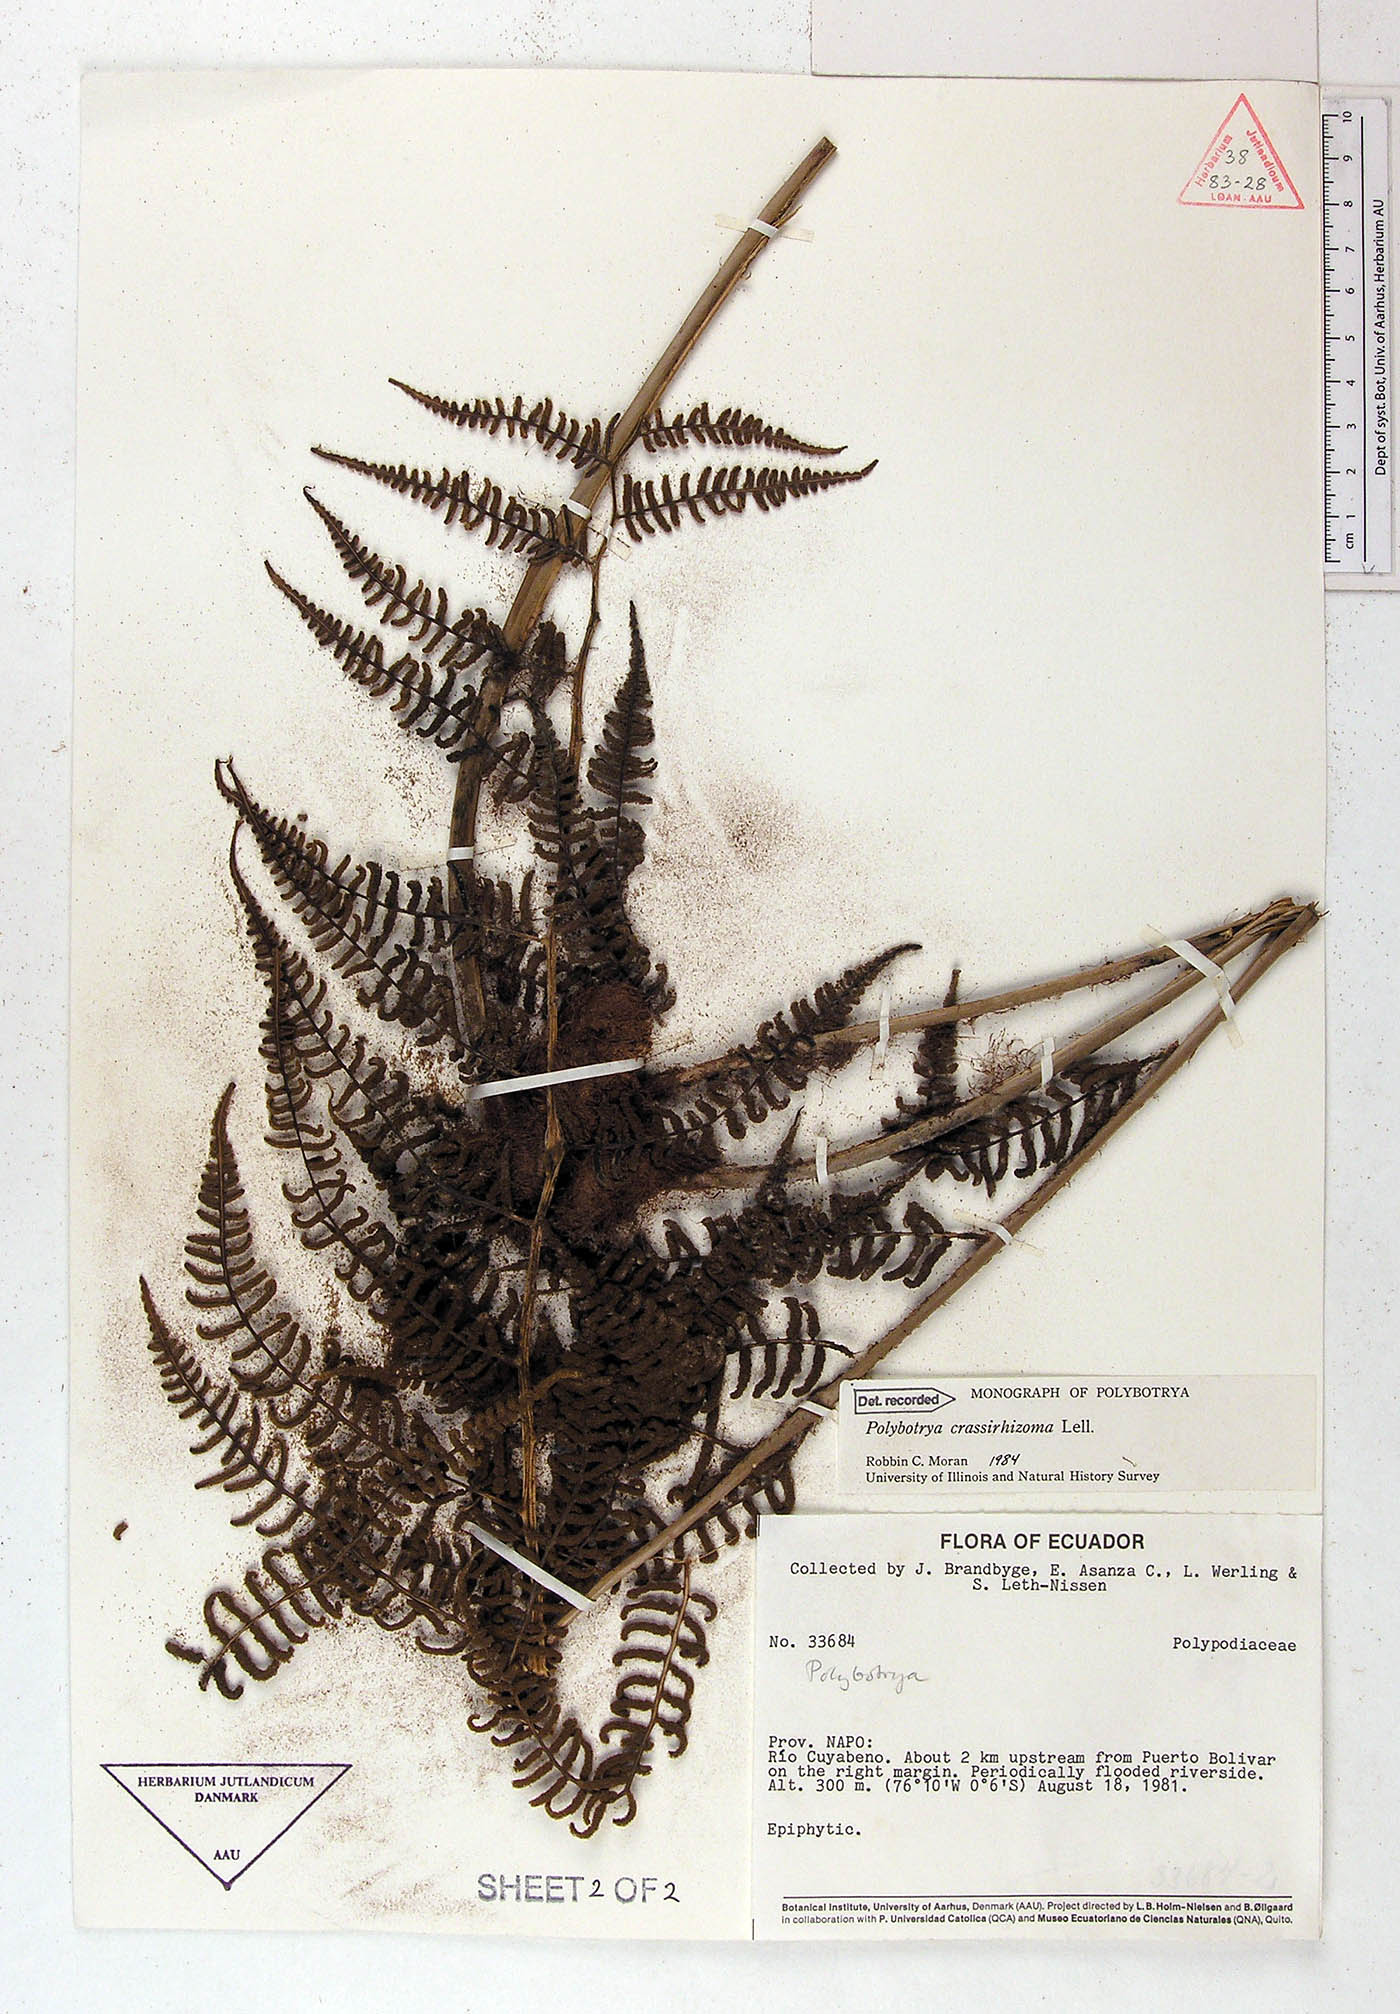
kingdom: Plantae
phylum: Tracheophyta
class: Polypodiopsida
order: Polypodiales
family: Dryopteridaceae
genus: Polybotrya
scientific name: Polybotrya crassirhizoma
